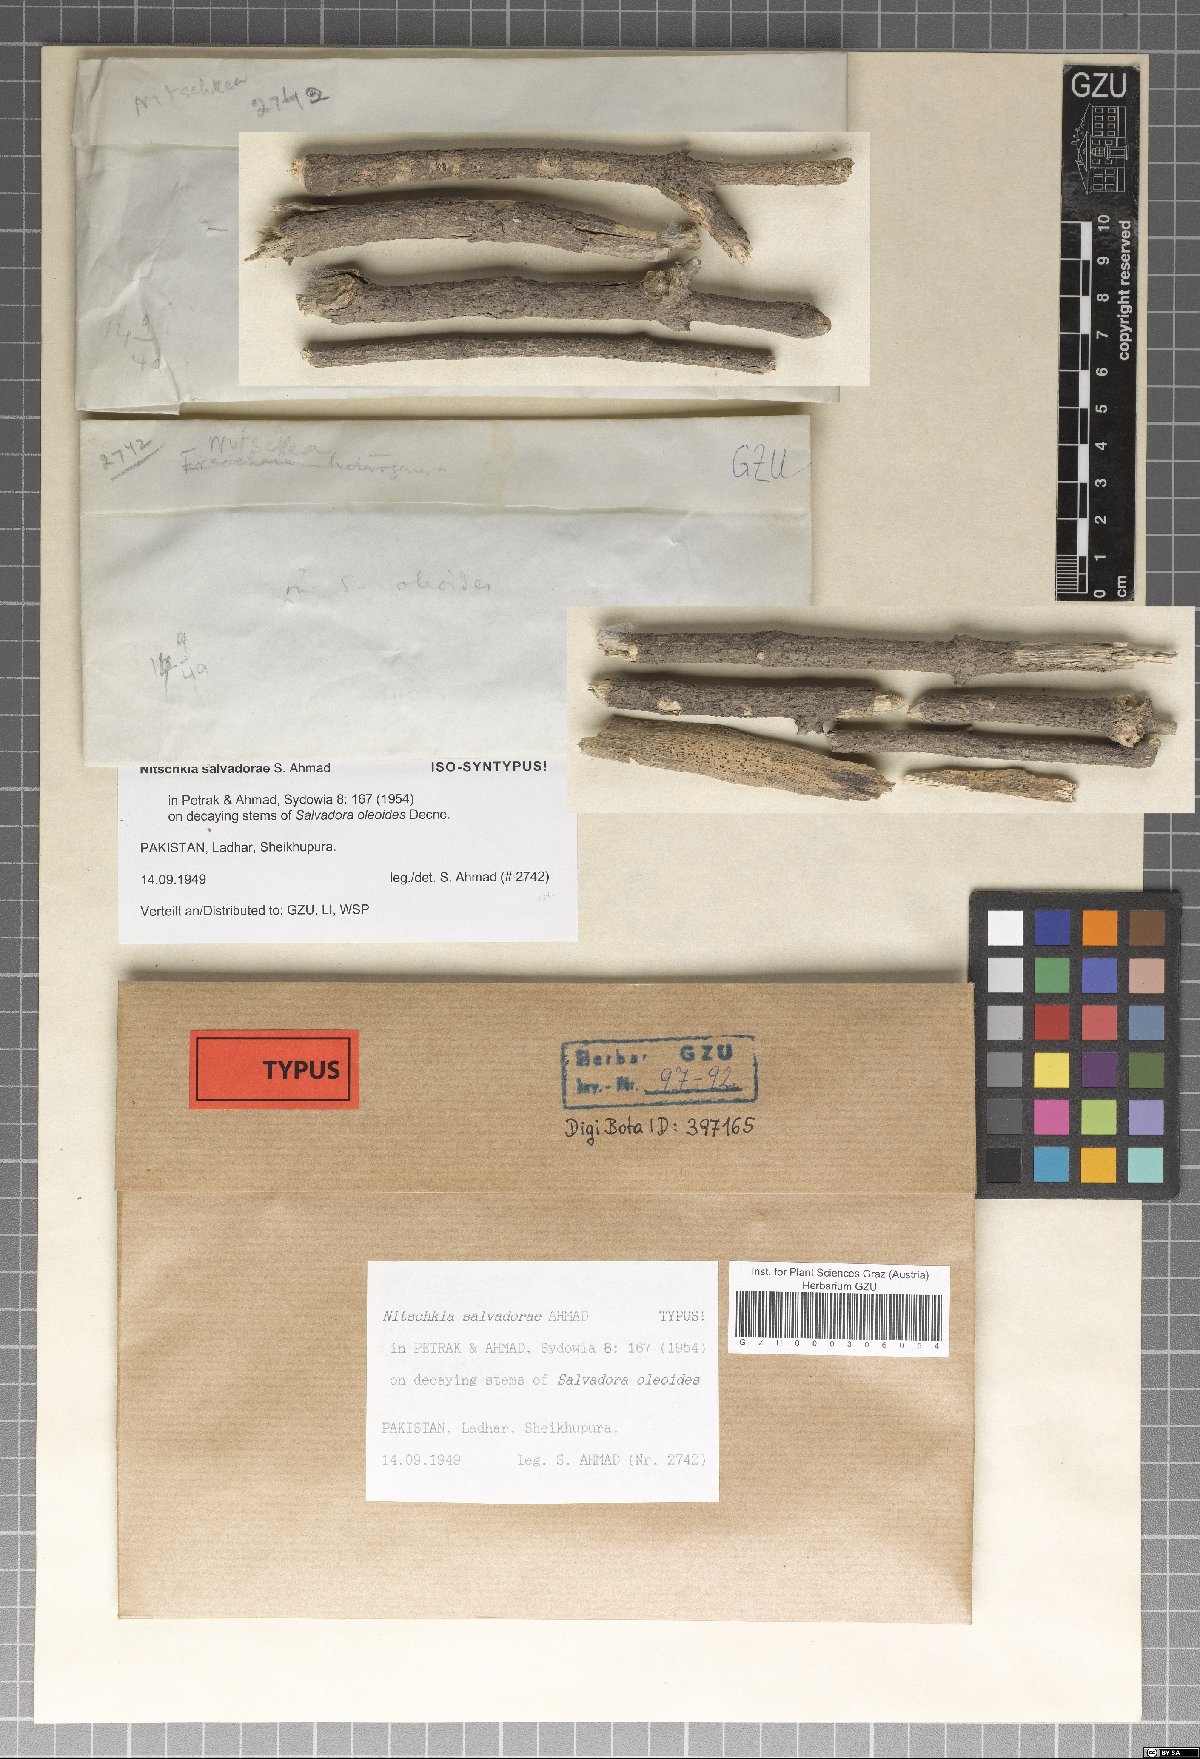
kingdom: Fungi
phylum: Ascomycota
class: Sordariomycetes
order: Coronophorales
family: Nitschkiaceae
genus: Nitschkia
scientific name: Nitschkia salvadorae
